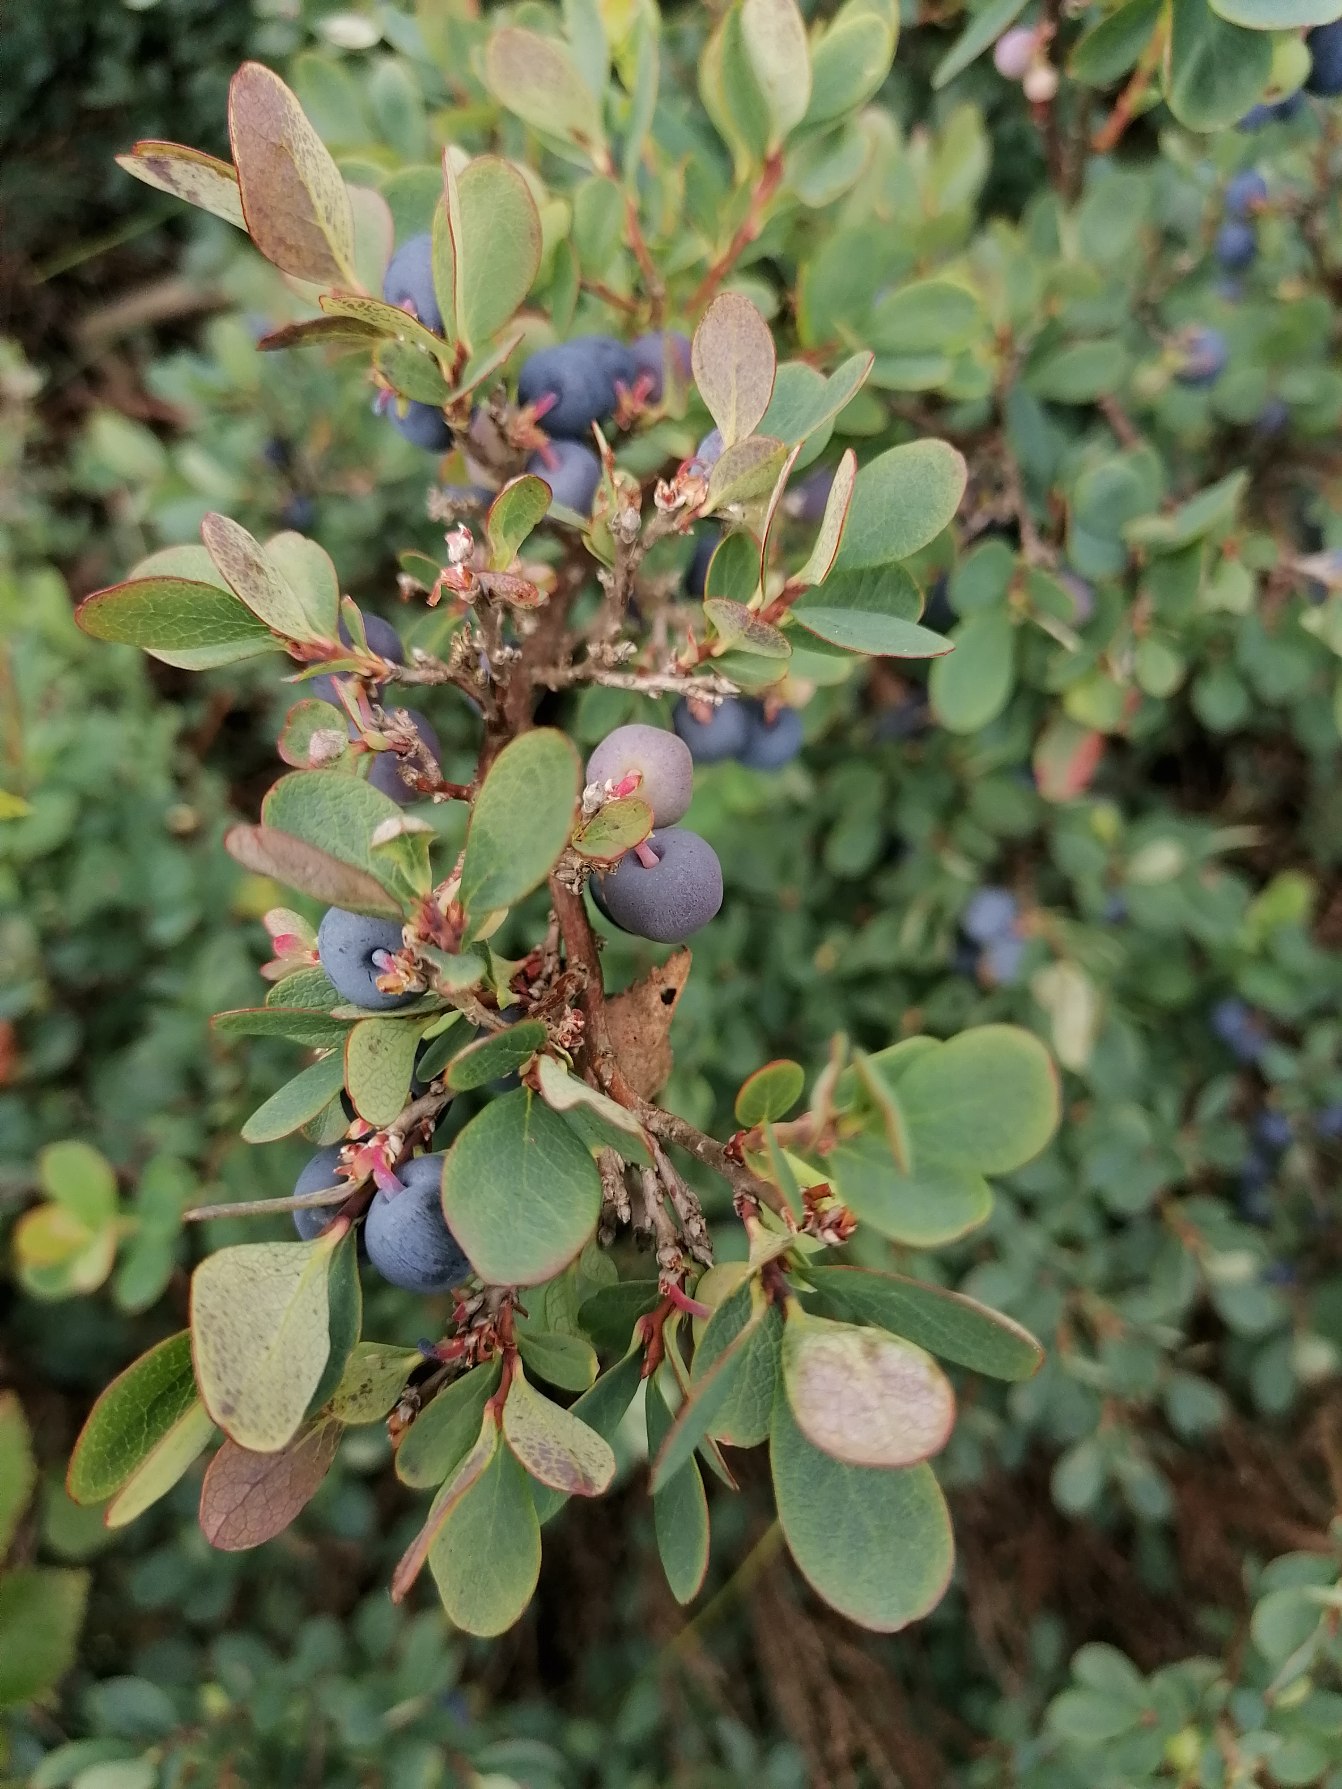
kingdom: Plantae
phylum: Tracheophyta
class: Magnoliopsida
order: Ericales
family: Ericaceae
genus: Vaccinium
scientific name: Vaccinium uliginosum
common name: Mose-bølle
